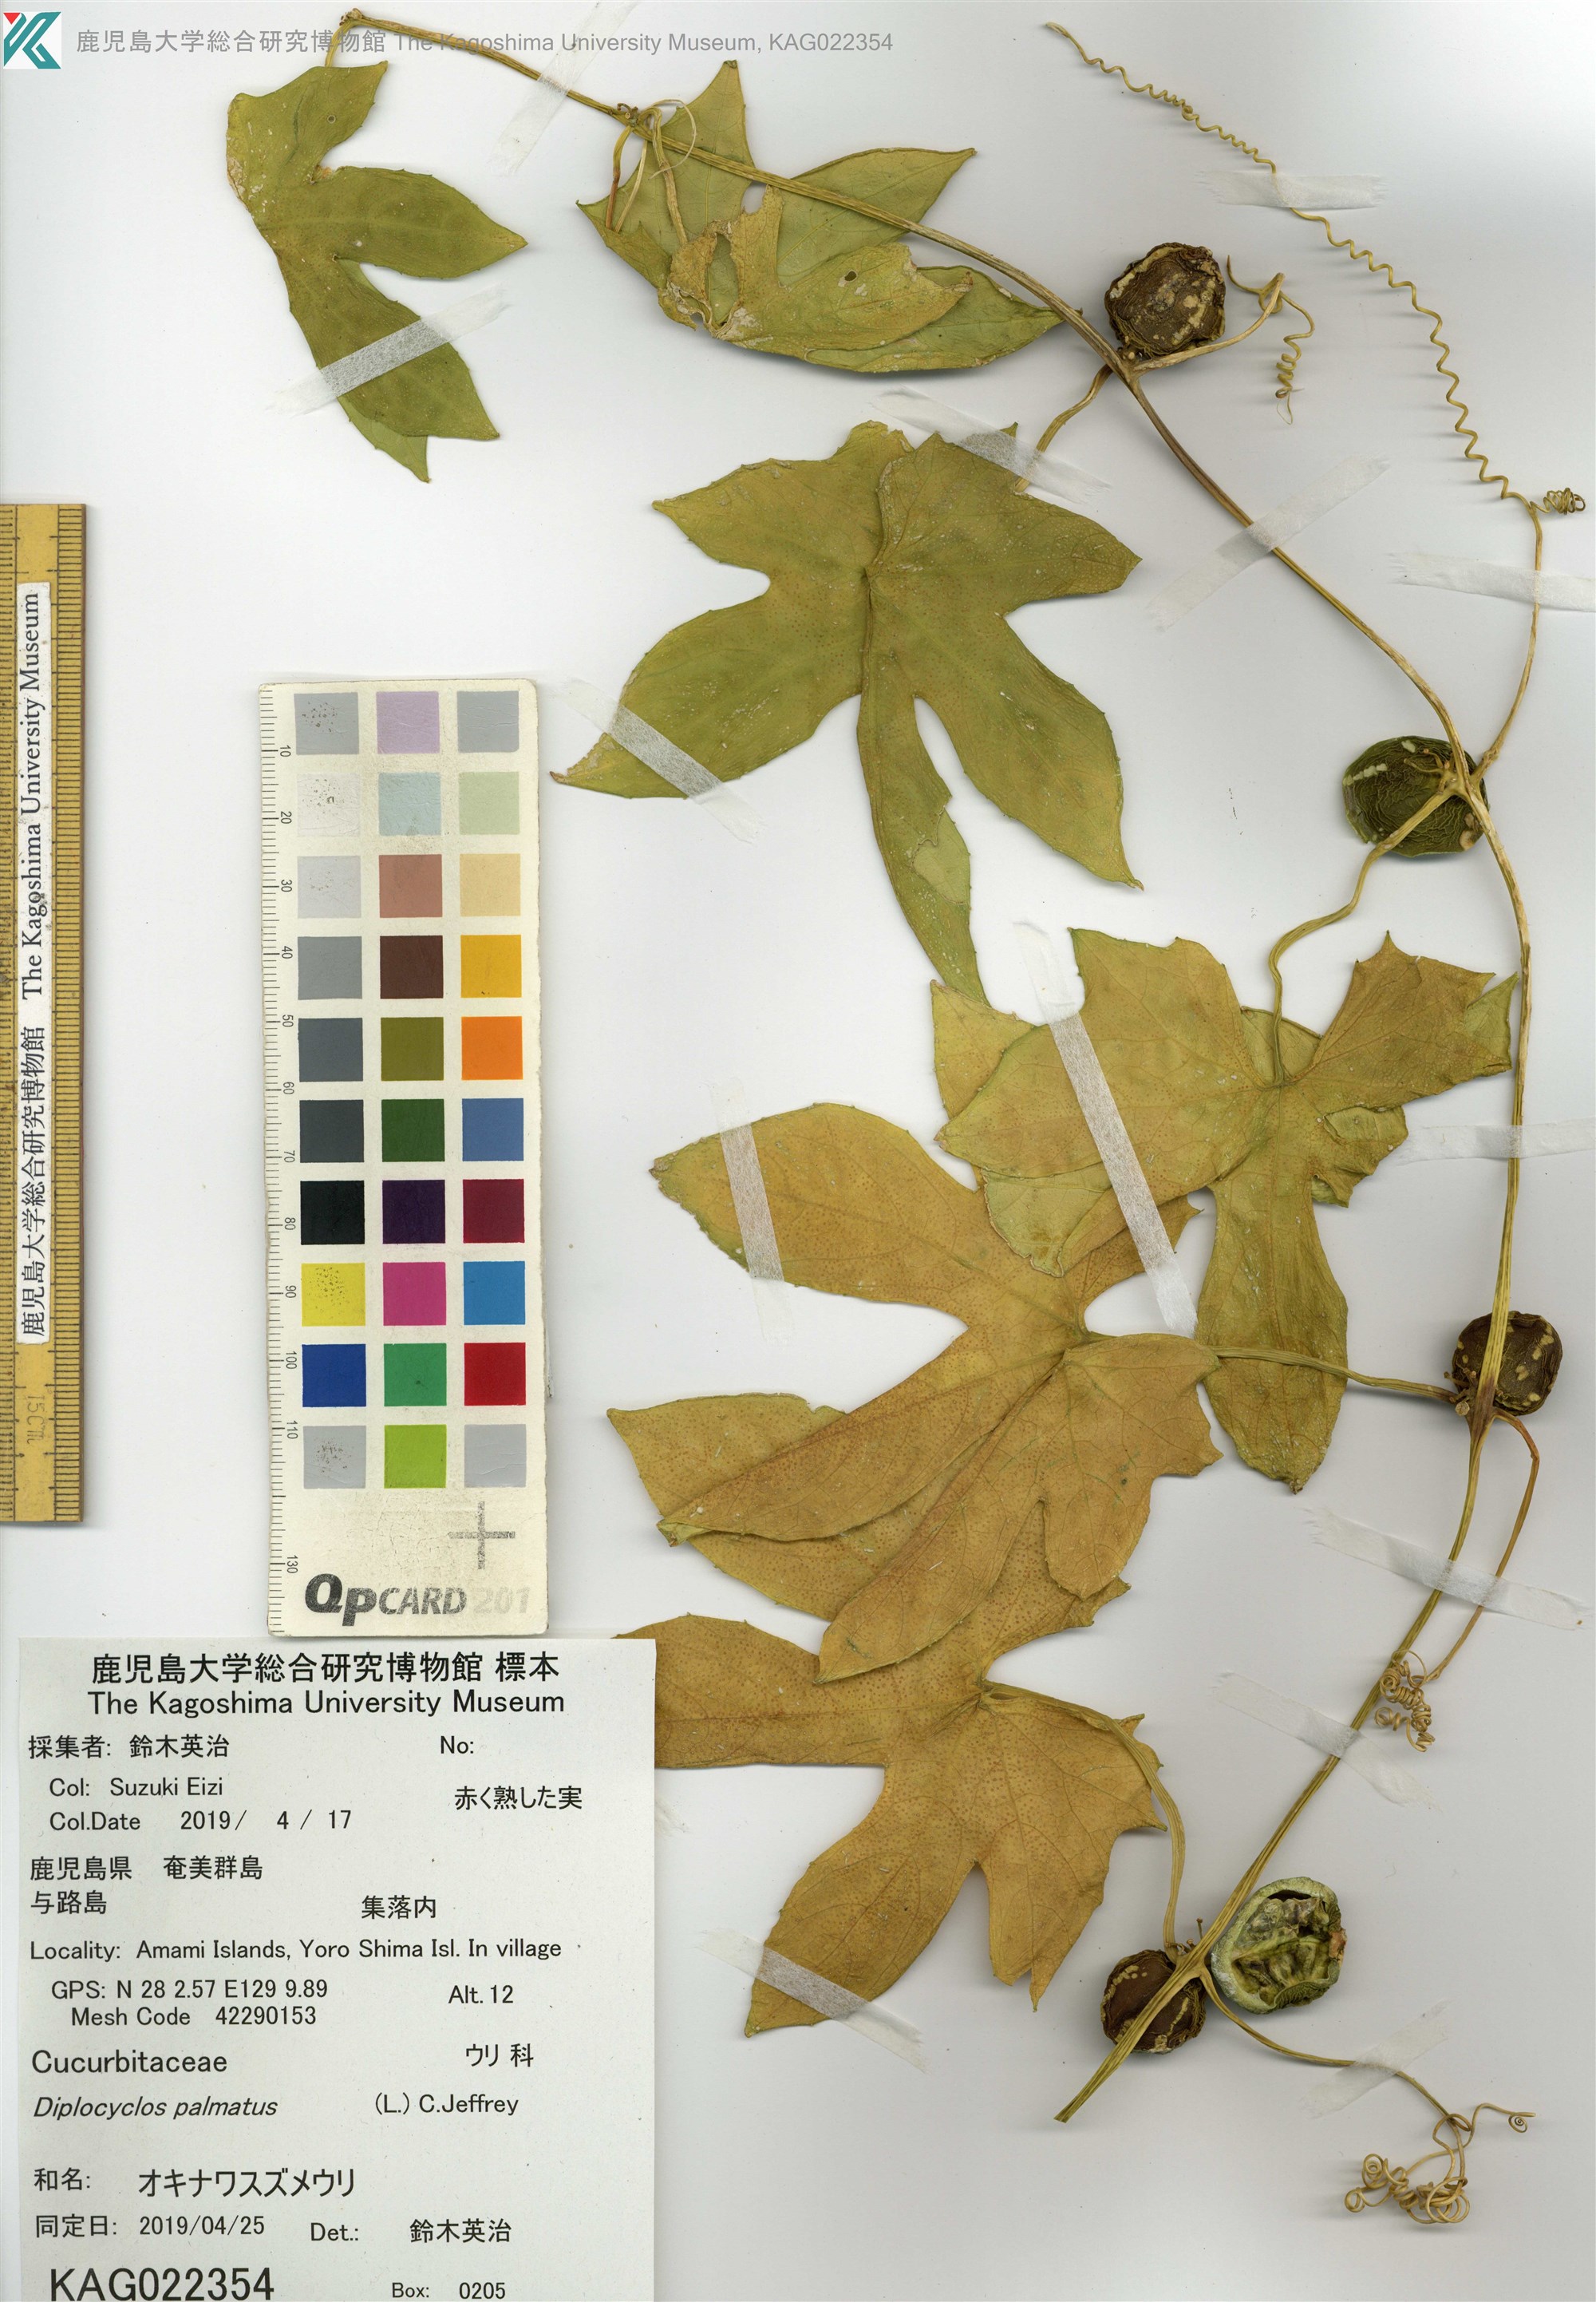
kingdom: Plantae
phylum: Tracheophyta
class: Magnoliopsida
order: Cucurbitales
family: Cucurbitaceae
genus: Diplocyclos
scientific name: Diplocyclos palmatus
